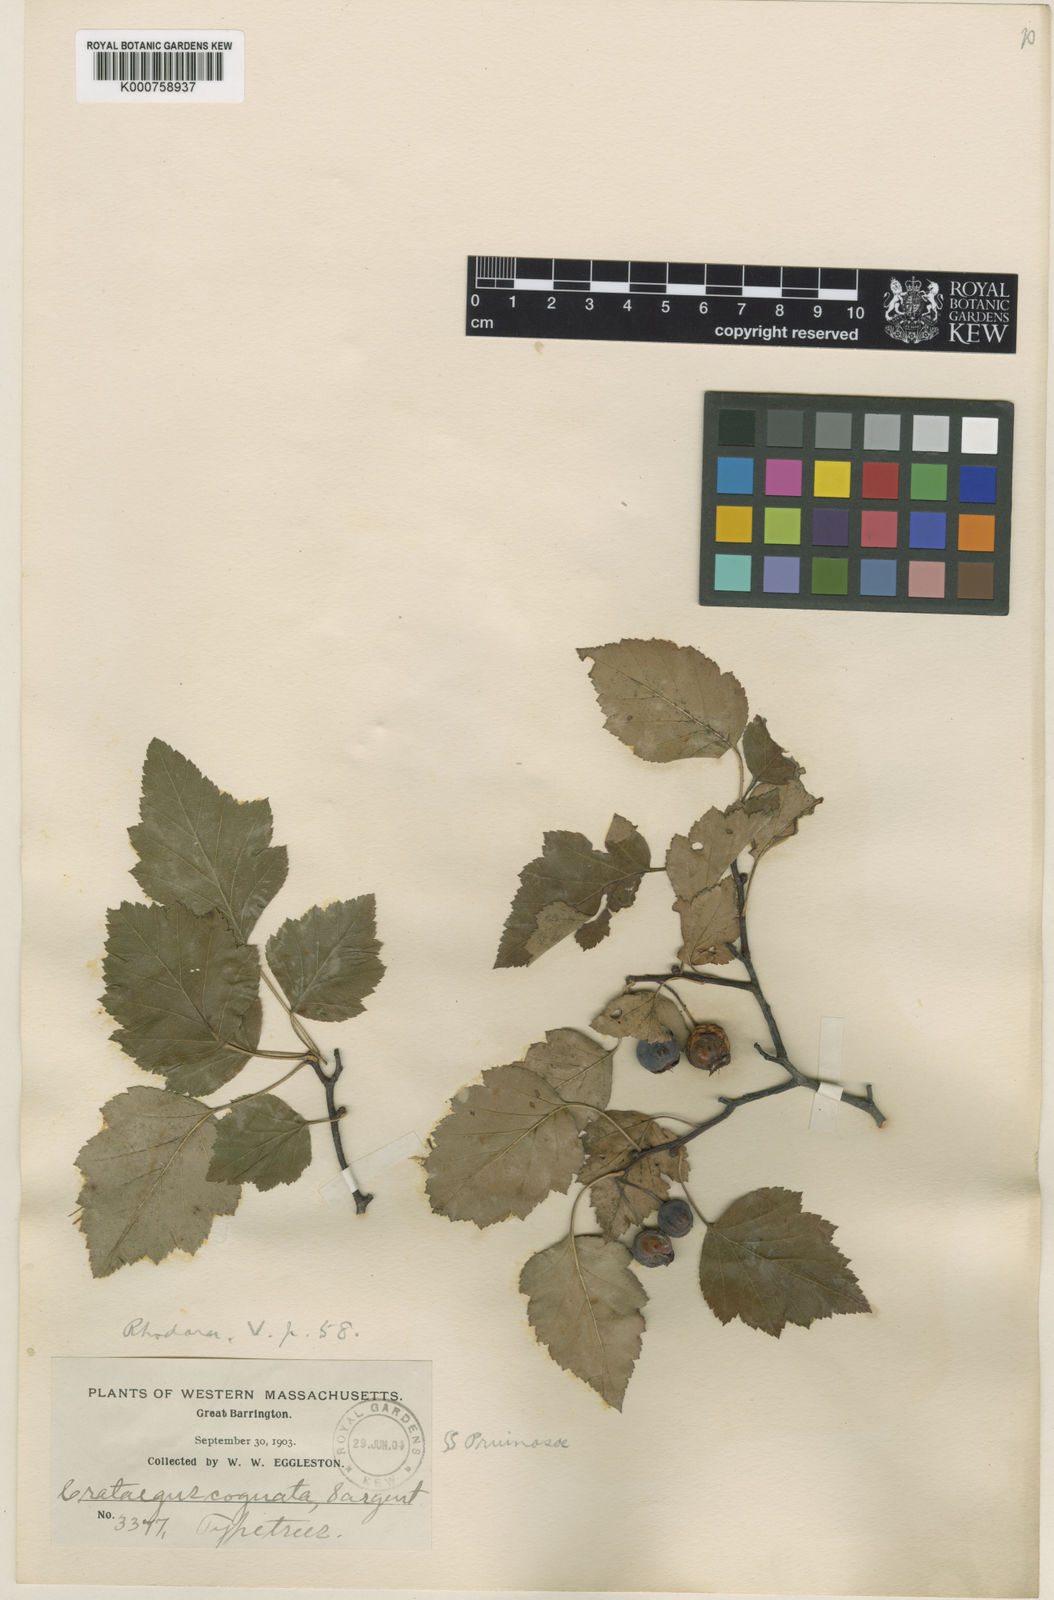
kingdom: Plantae
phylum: Tracheophyta
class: Magnoliopsida
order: Rosales
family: Rosaceae
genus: Crataegus
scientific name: Crataegus cognata
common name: Cognate hawthorn
